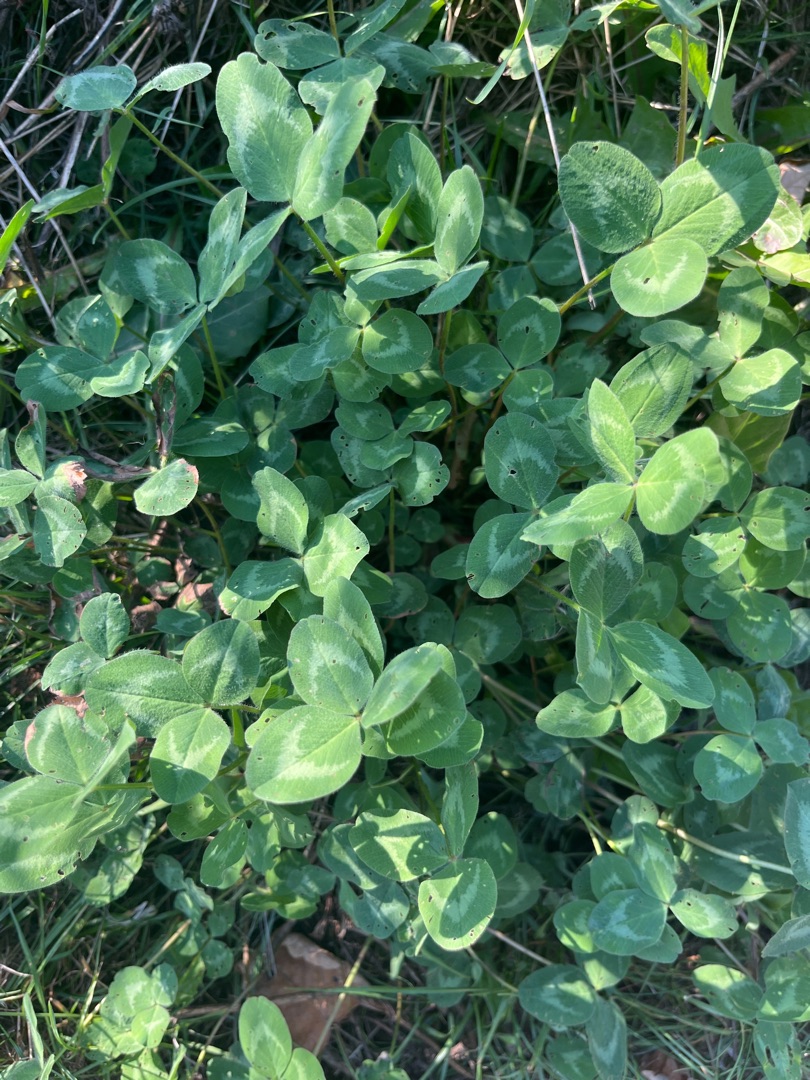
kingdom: Plantae
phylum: Tracheophyta
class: Magnoliopsida
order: Fabales
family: Fabaceae
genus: Trifolium
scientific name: Trifolium pratense
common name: Rød-kløver
